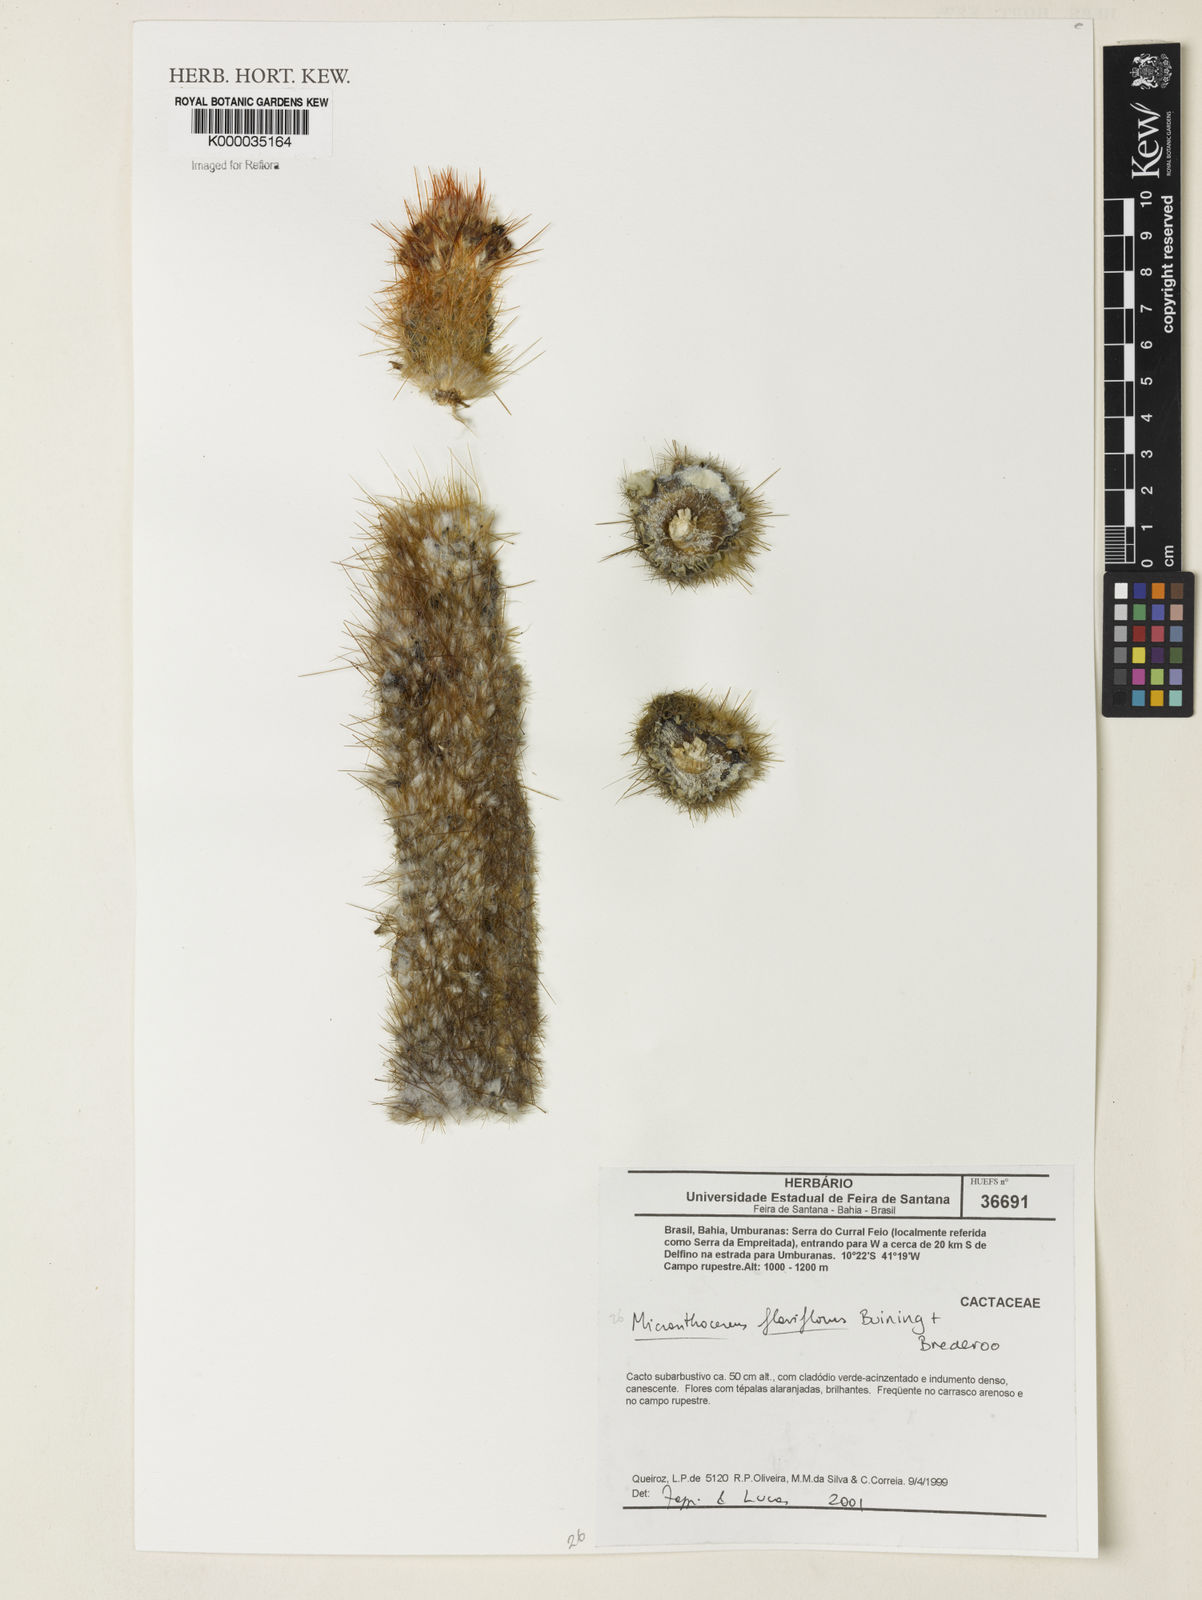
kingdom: Plantae
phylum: Tracheophyta
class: Magnoliopsida
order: Caryophyllales
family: Cactaceae
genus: Micranthocereus
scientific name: Micranthocereus flaviflorus
